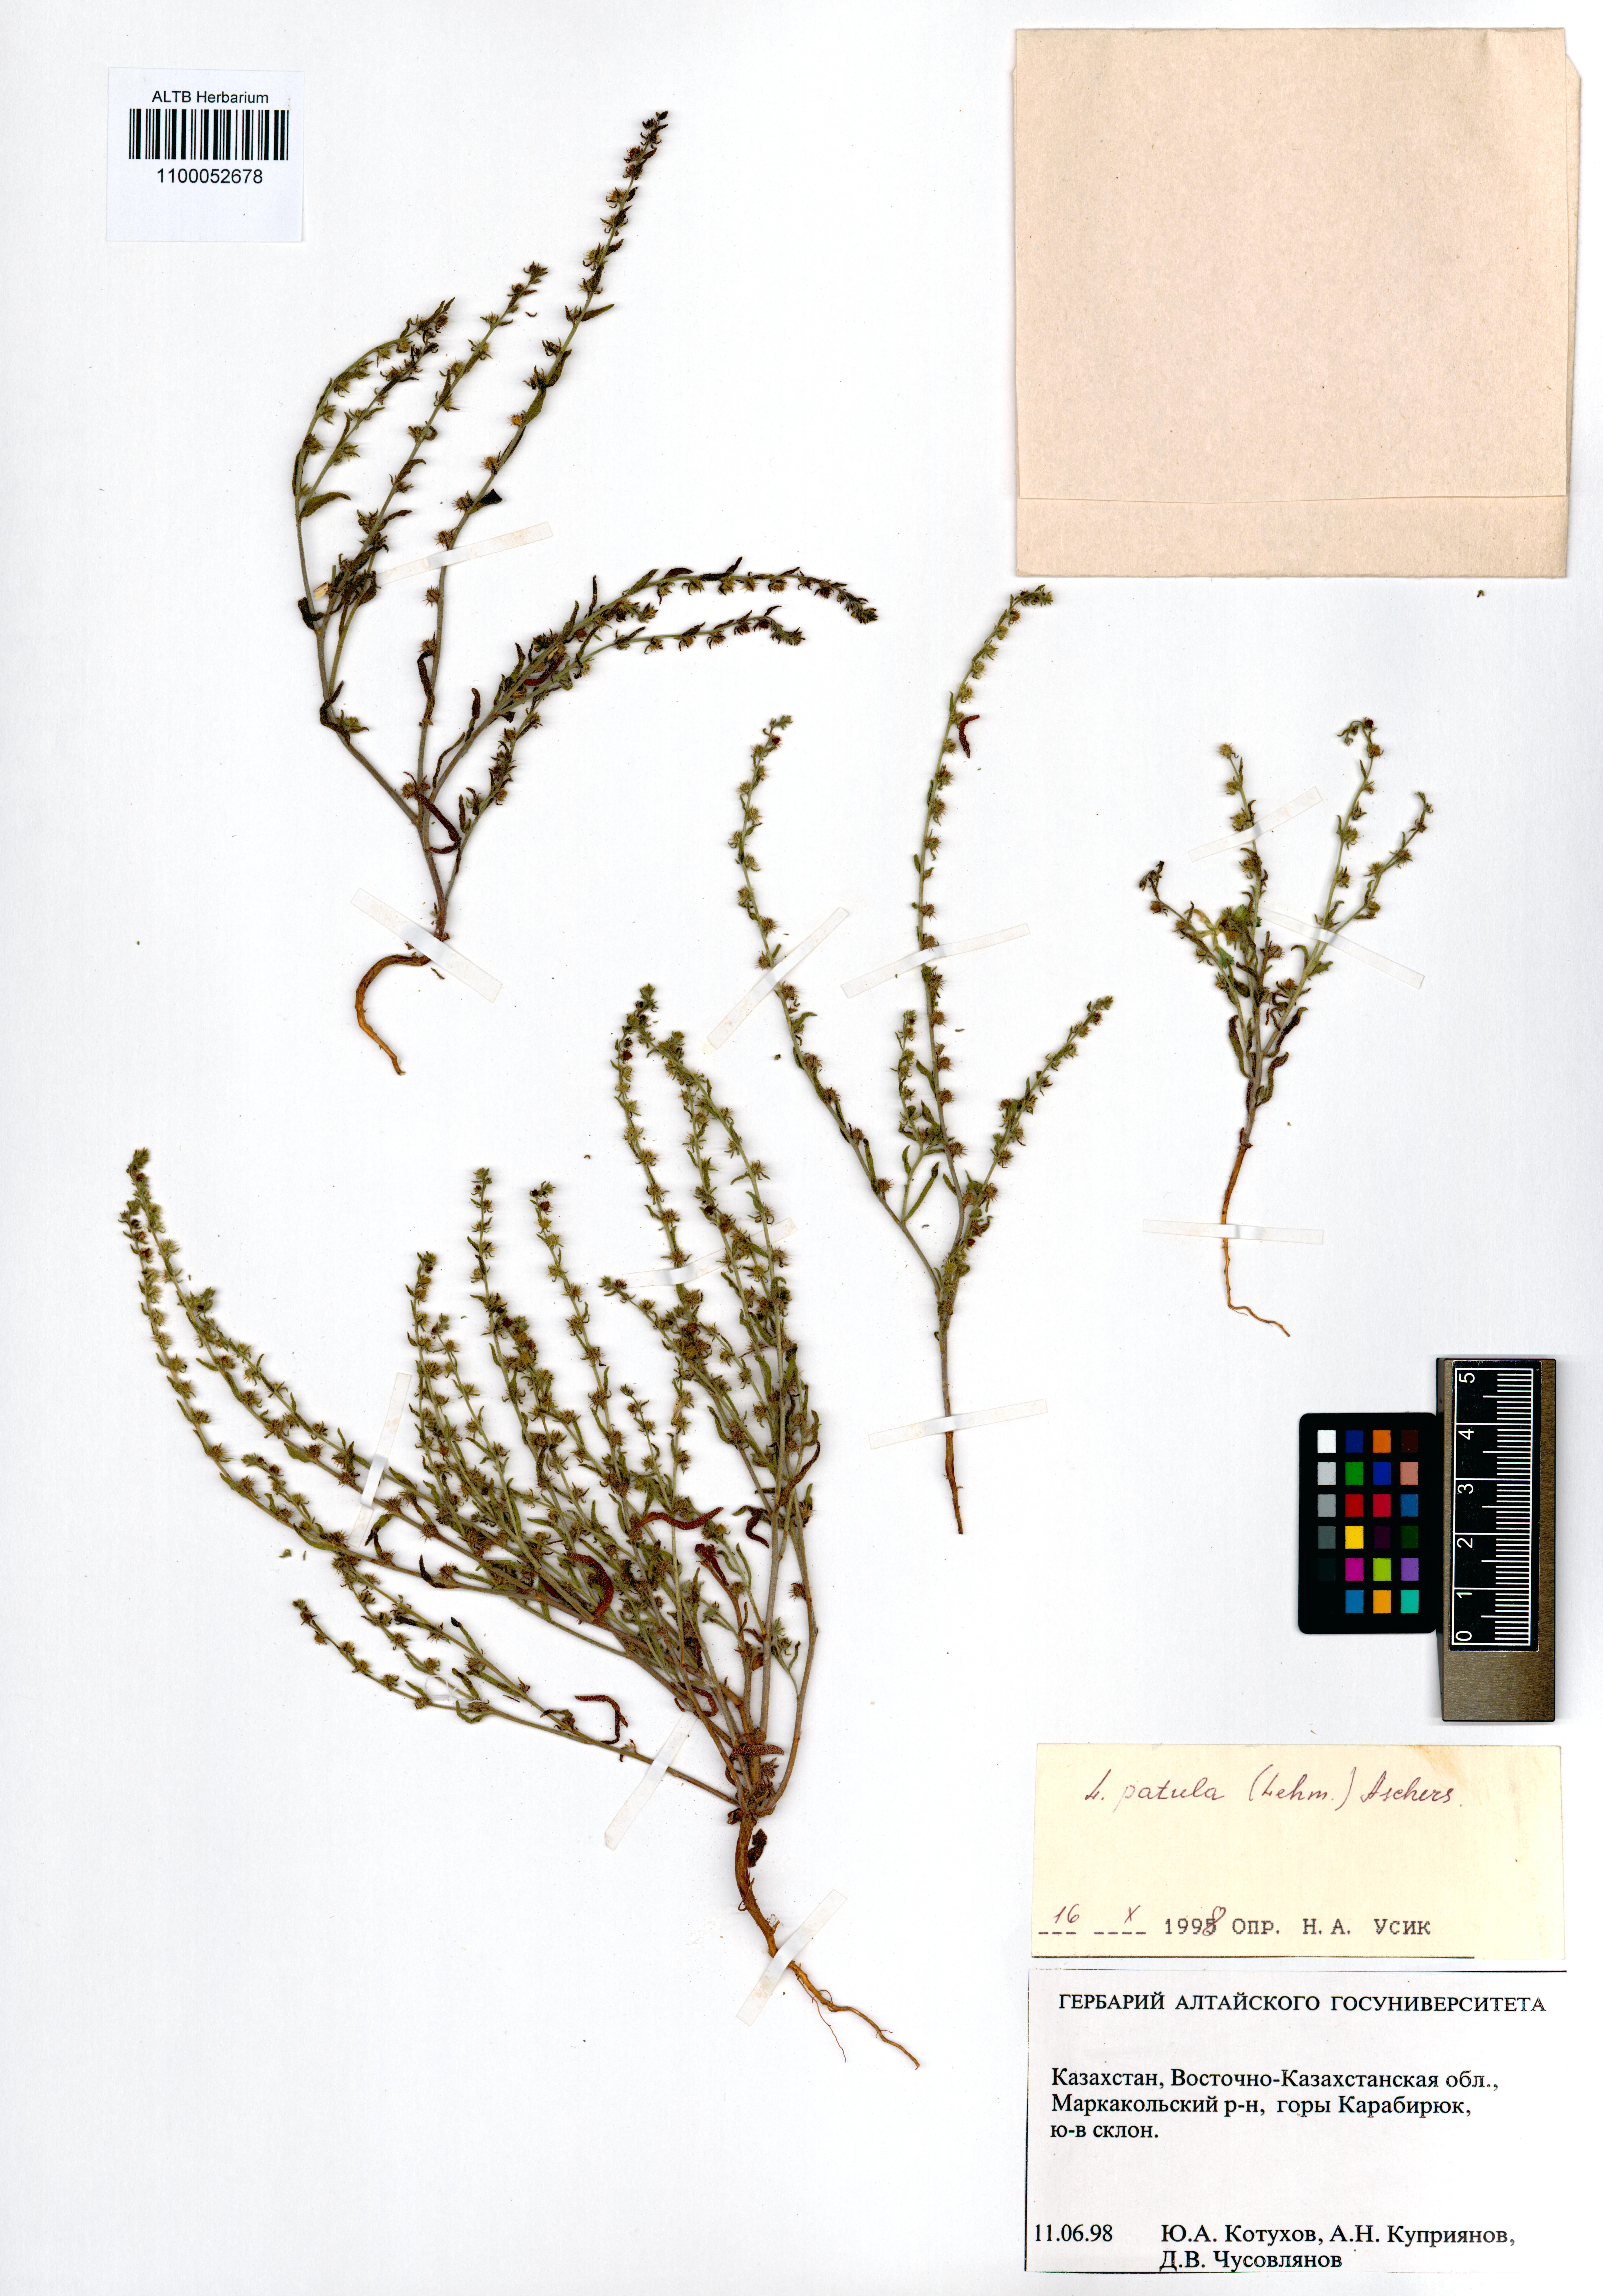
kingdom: Plantae
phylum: Tracheophyta
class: Magnoliopsida
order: Boraginales
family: Boraginaceae
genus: Lappula
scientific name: Lappula patula
